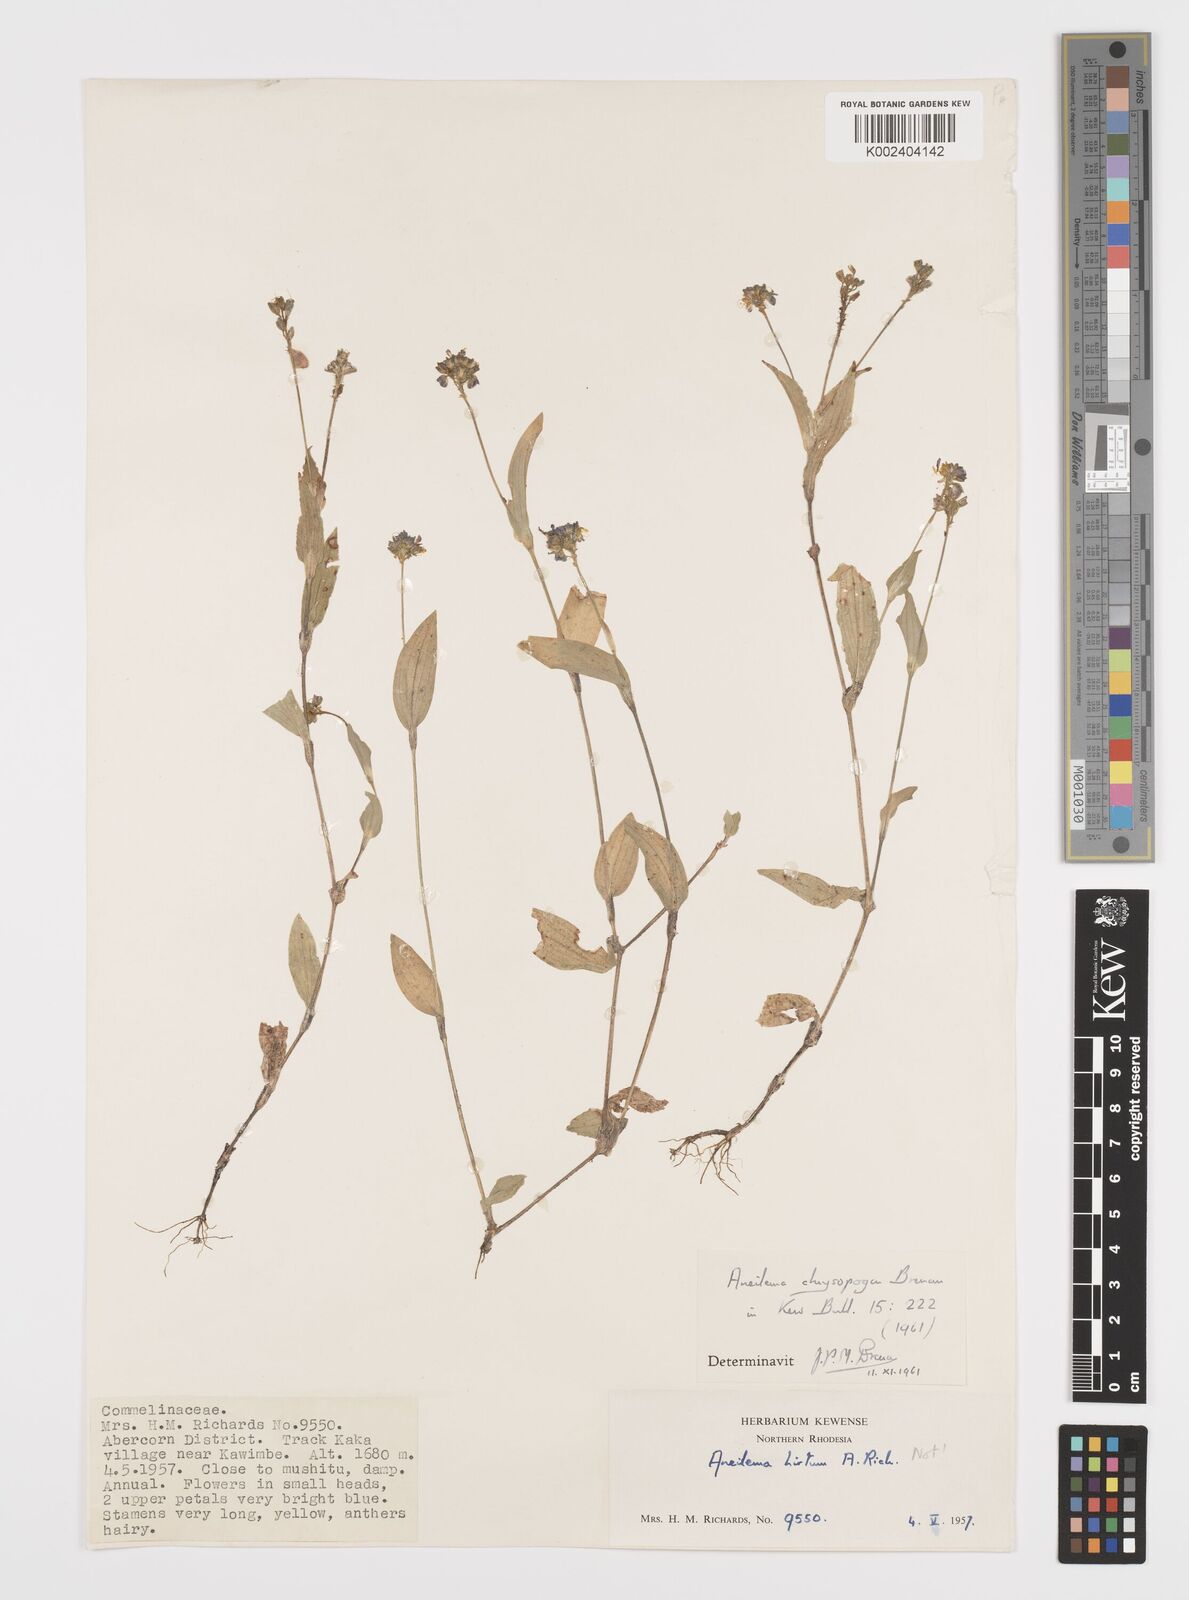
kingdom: Plantae
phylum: Tracheophyta
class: Liliopsida
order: Commelinales
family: Commelinaceae
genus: Aneilema
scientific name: Aneilema chrysopogon
